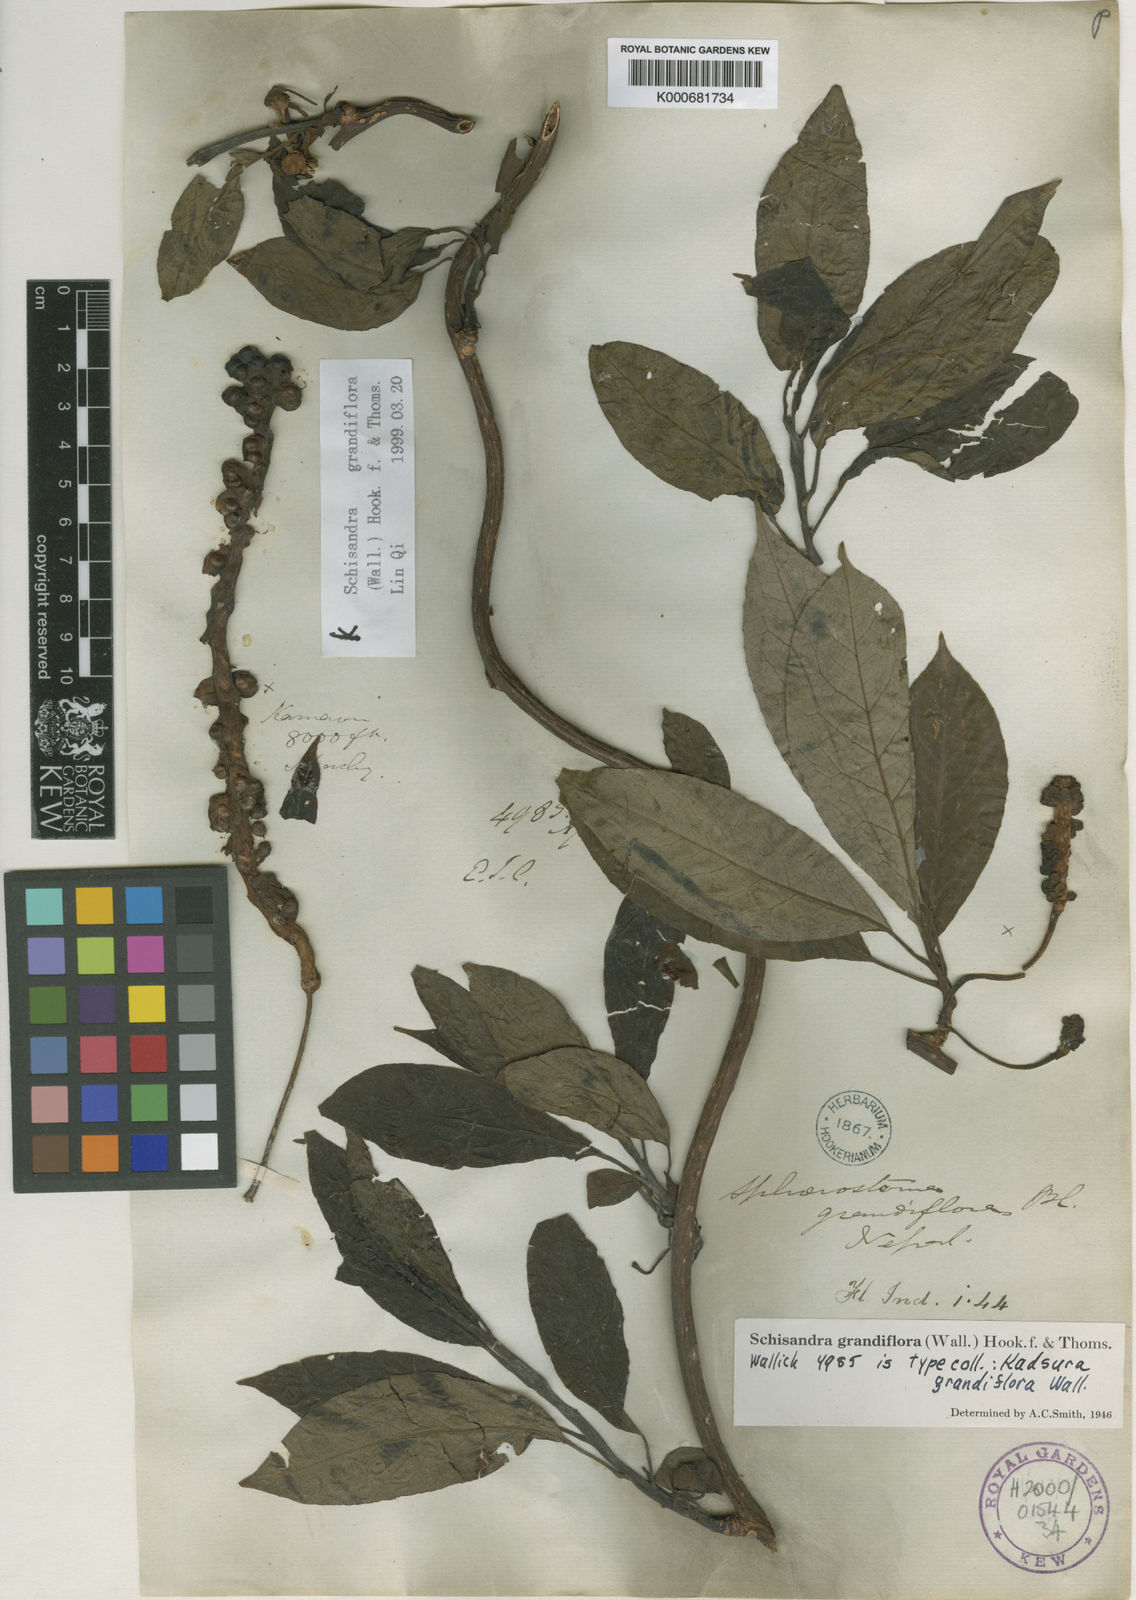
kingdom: Plantae
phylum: Tracheophyta
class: Magnoliopsida
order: Austrobaileyales
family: Schisandraceae
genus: Schisandra
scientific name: Schisandra grandiflora
